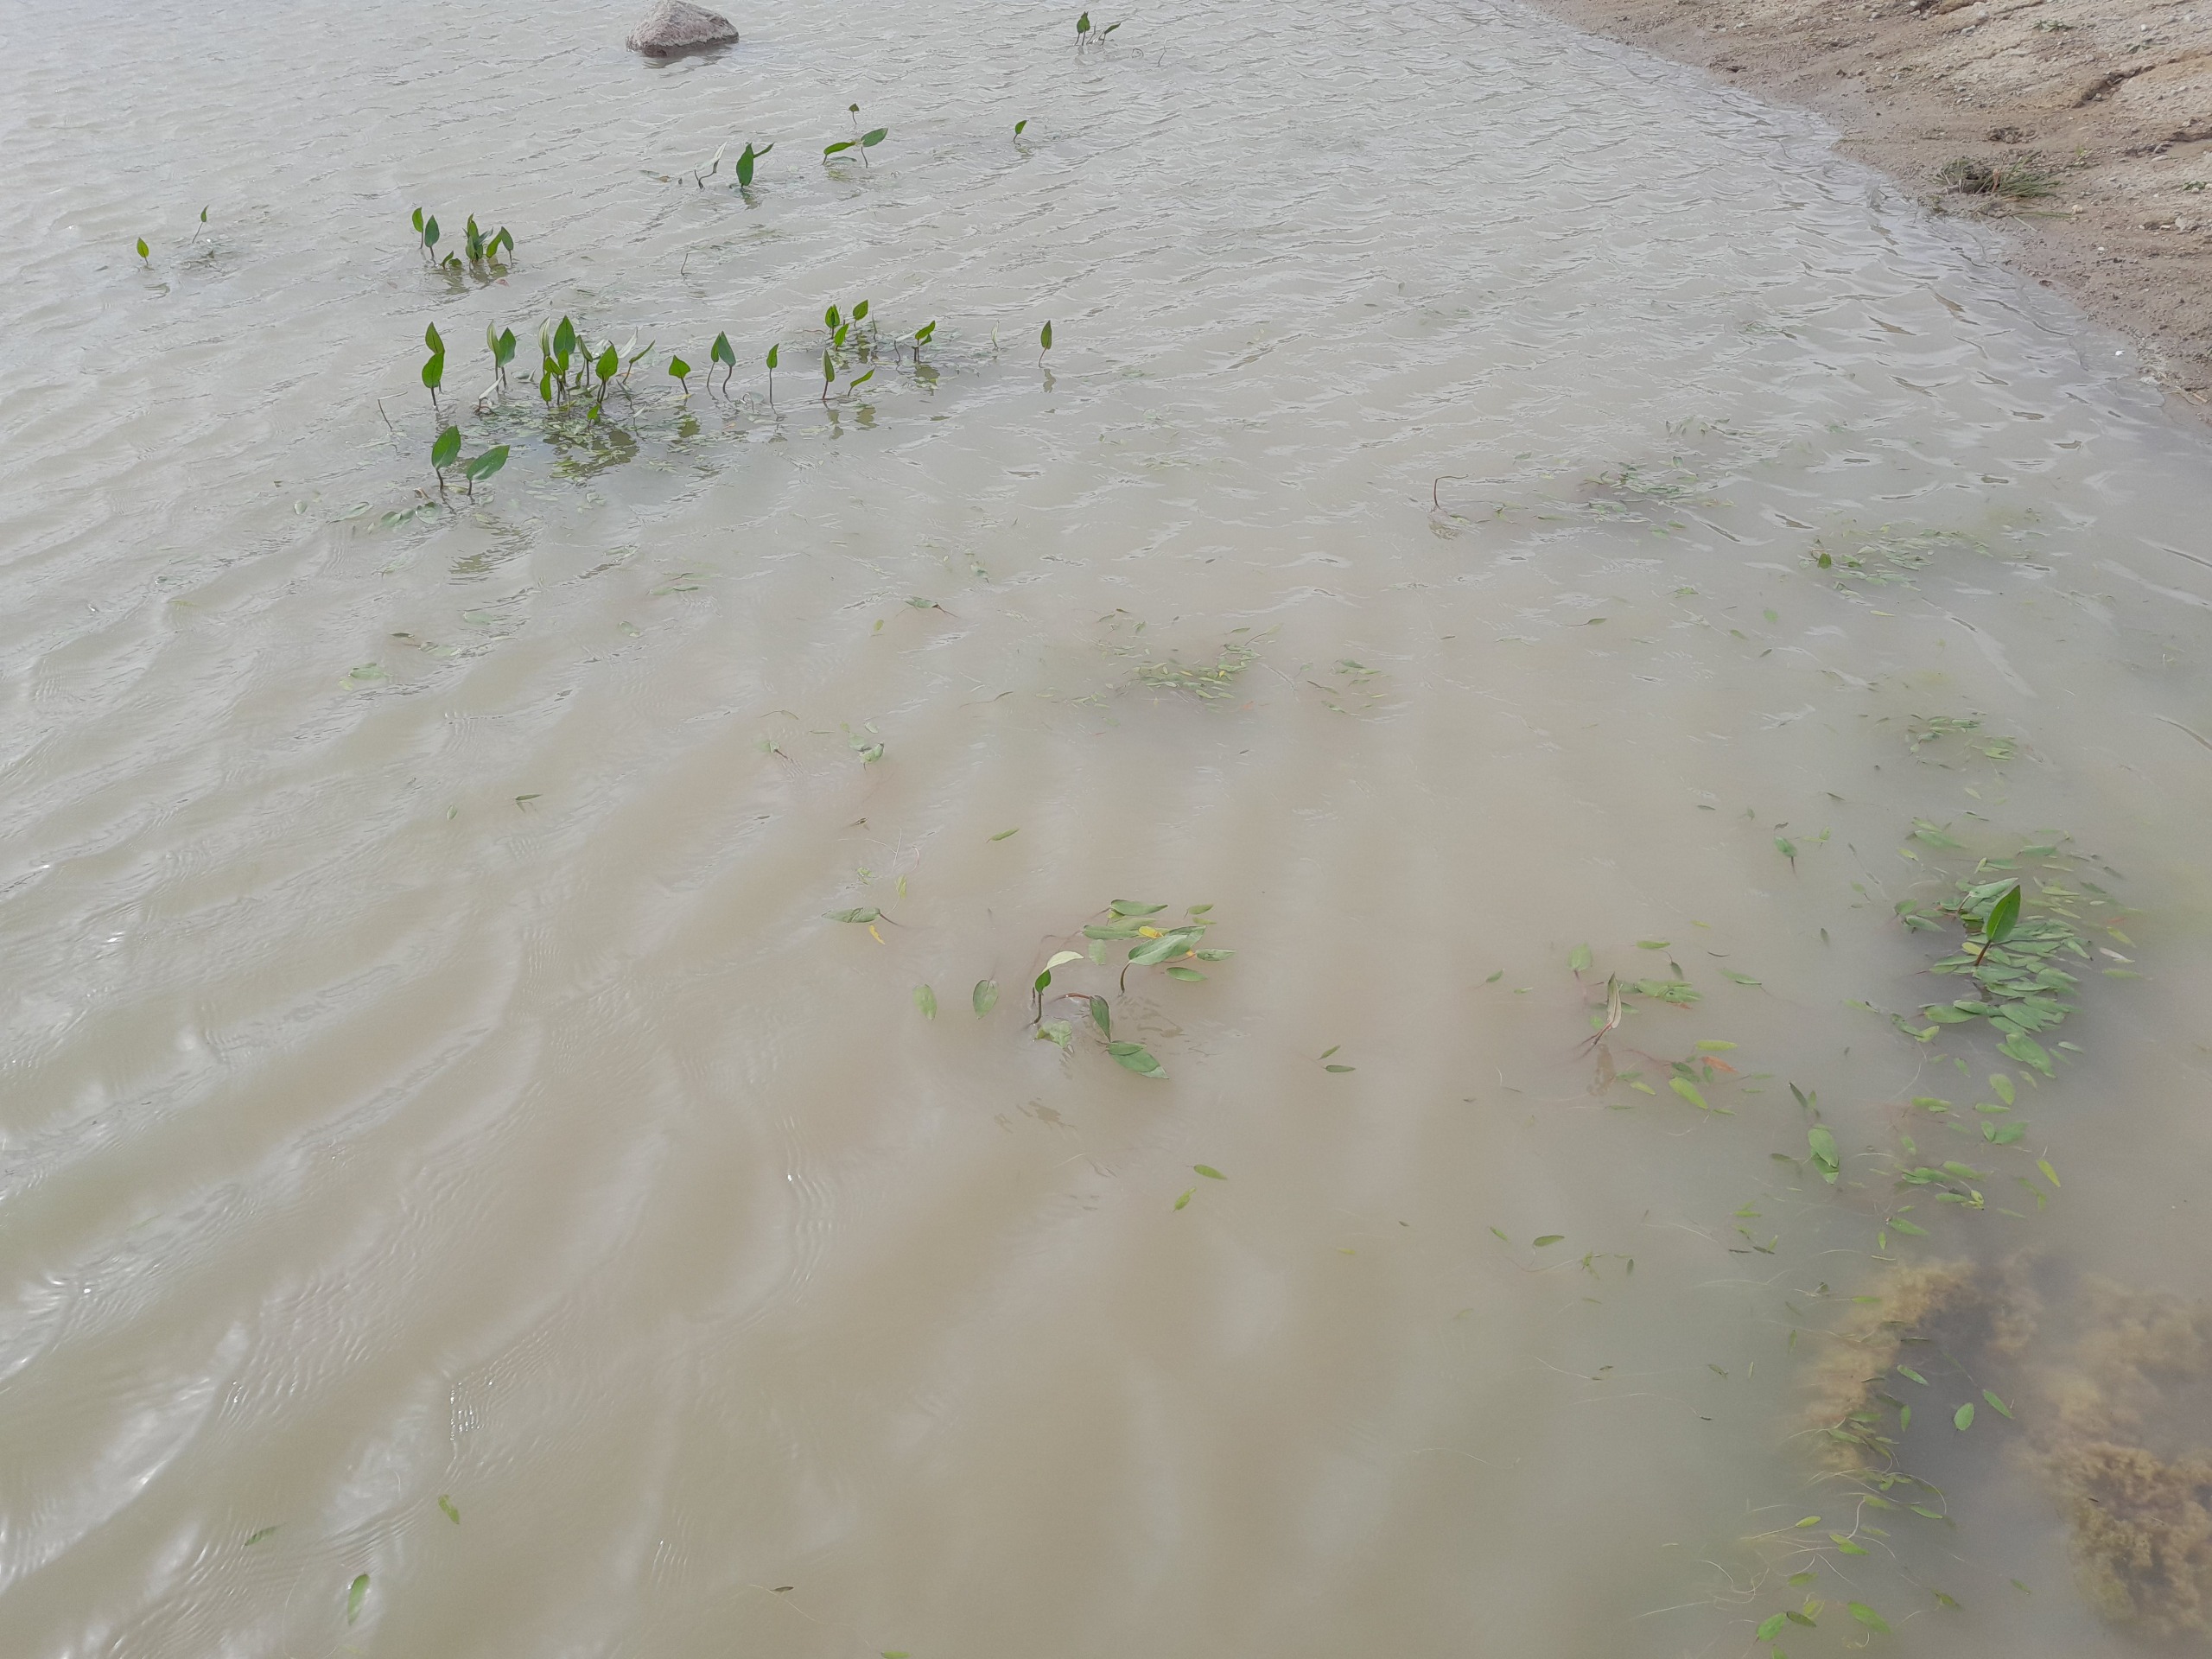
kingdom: Plantae
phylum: Tracheophyta
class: Liliopsida
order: Alismatales
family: Alismataceae
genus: Alisma
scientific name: Alisma plantago-aquatica
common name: Vejbred-skeblad
